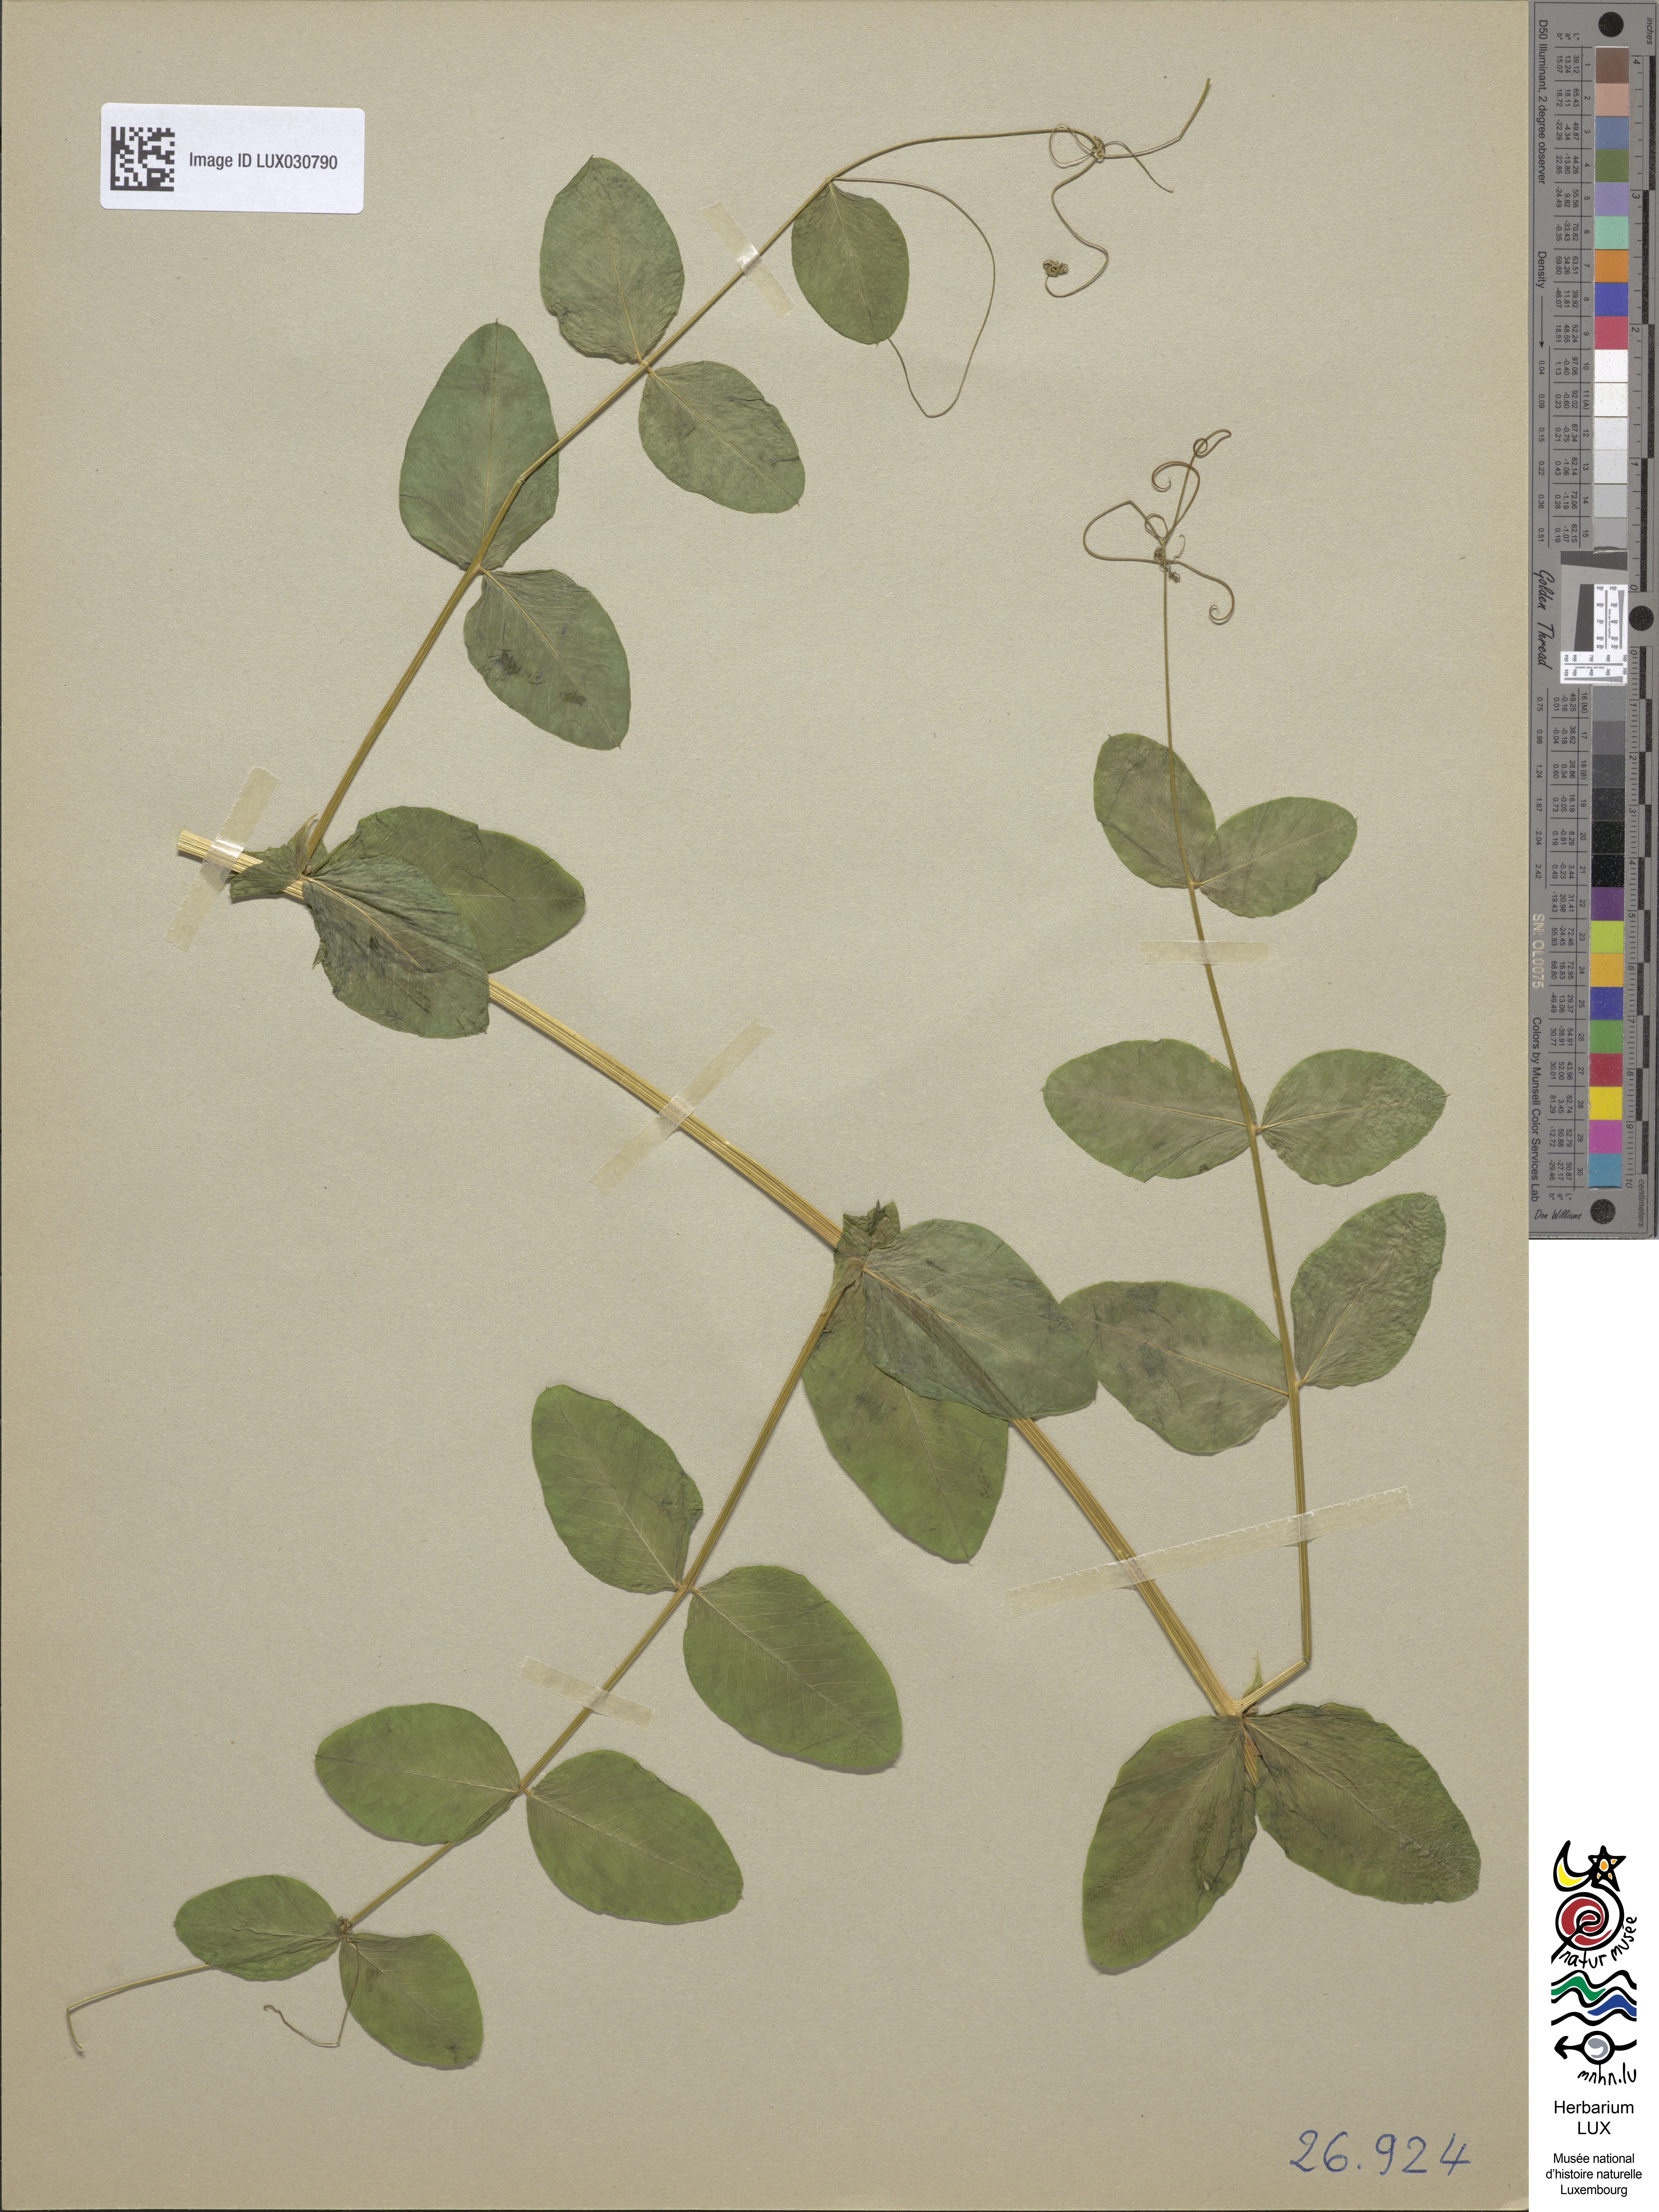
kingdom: Plantae
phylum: Tracheophyta
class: Magnoliopsida
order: Fabales
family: Fabaceae
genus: Vicia
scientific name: Vicia pisiformis
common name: Pale-flower vetch
